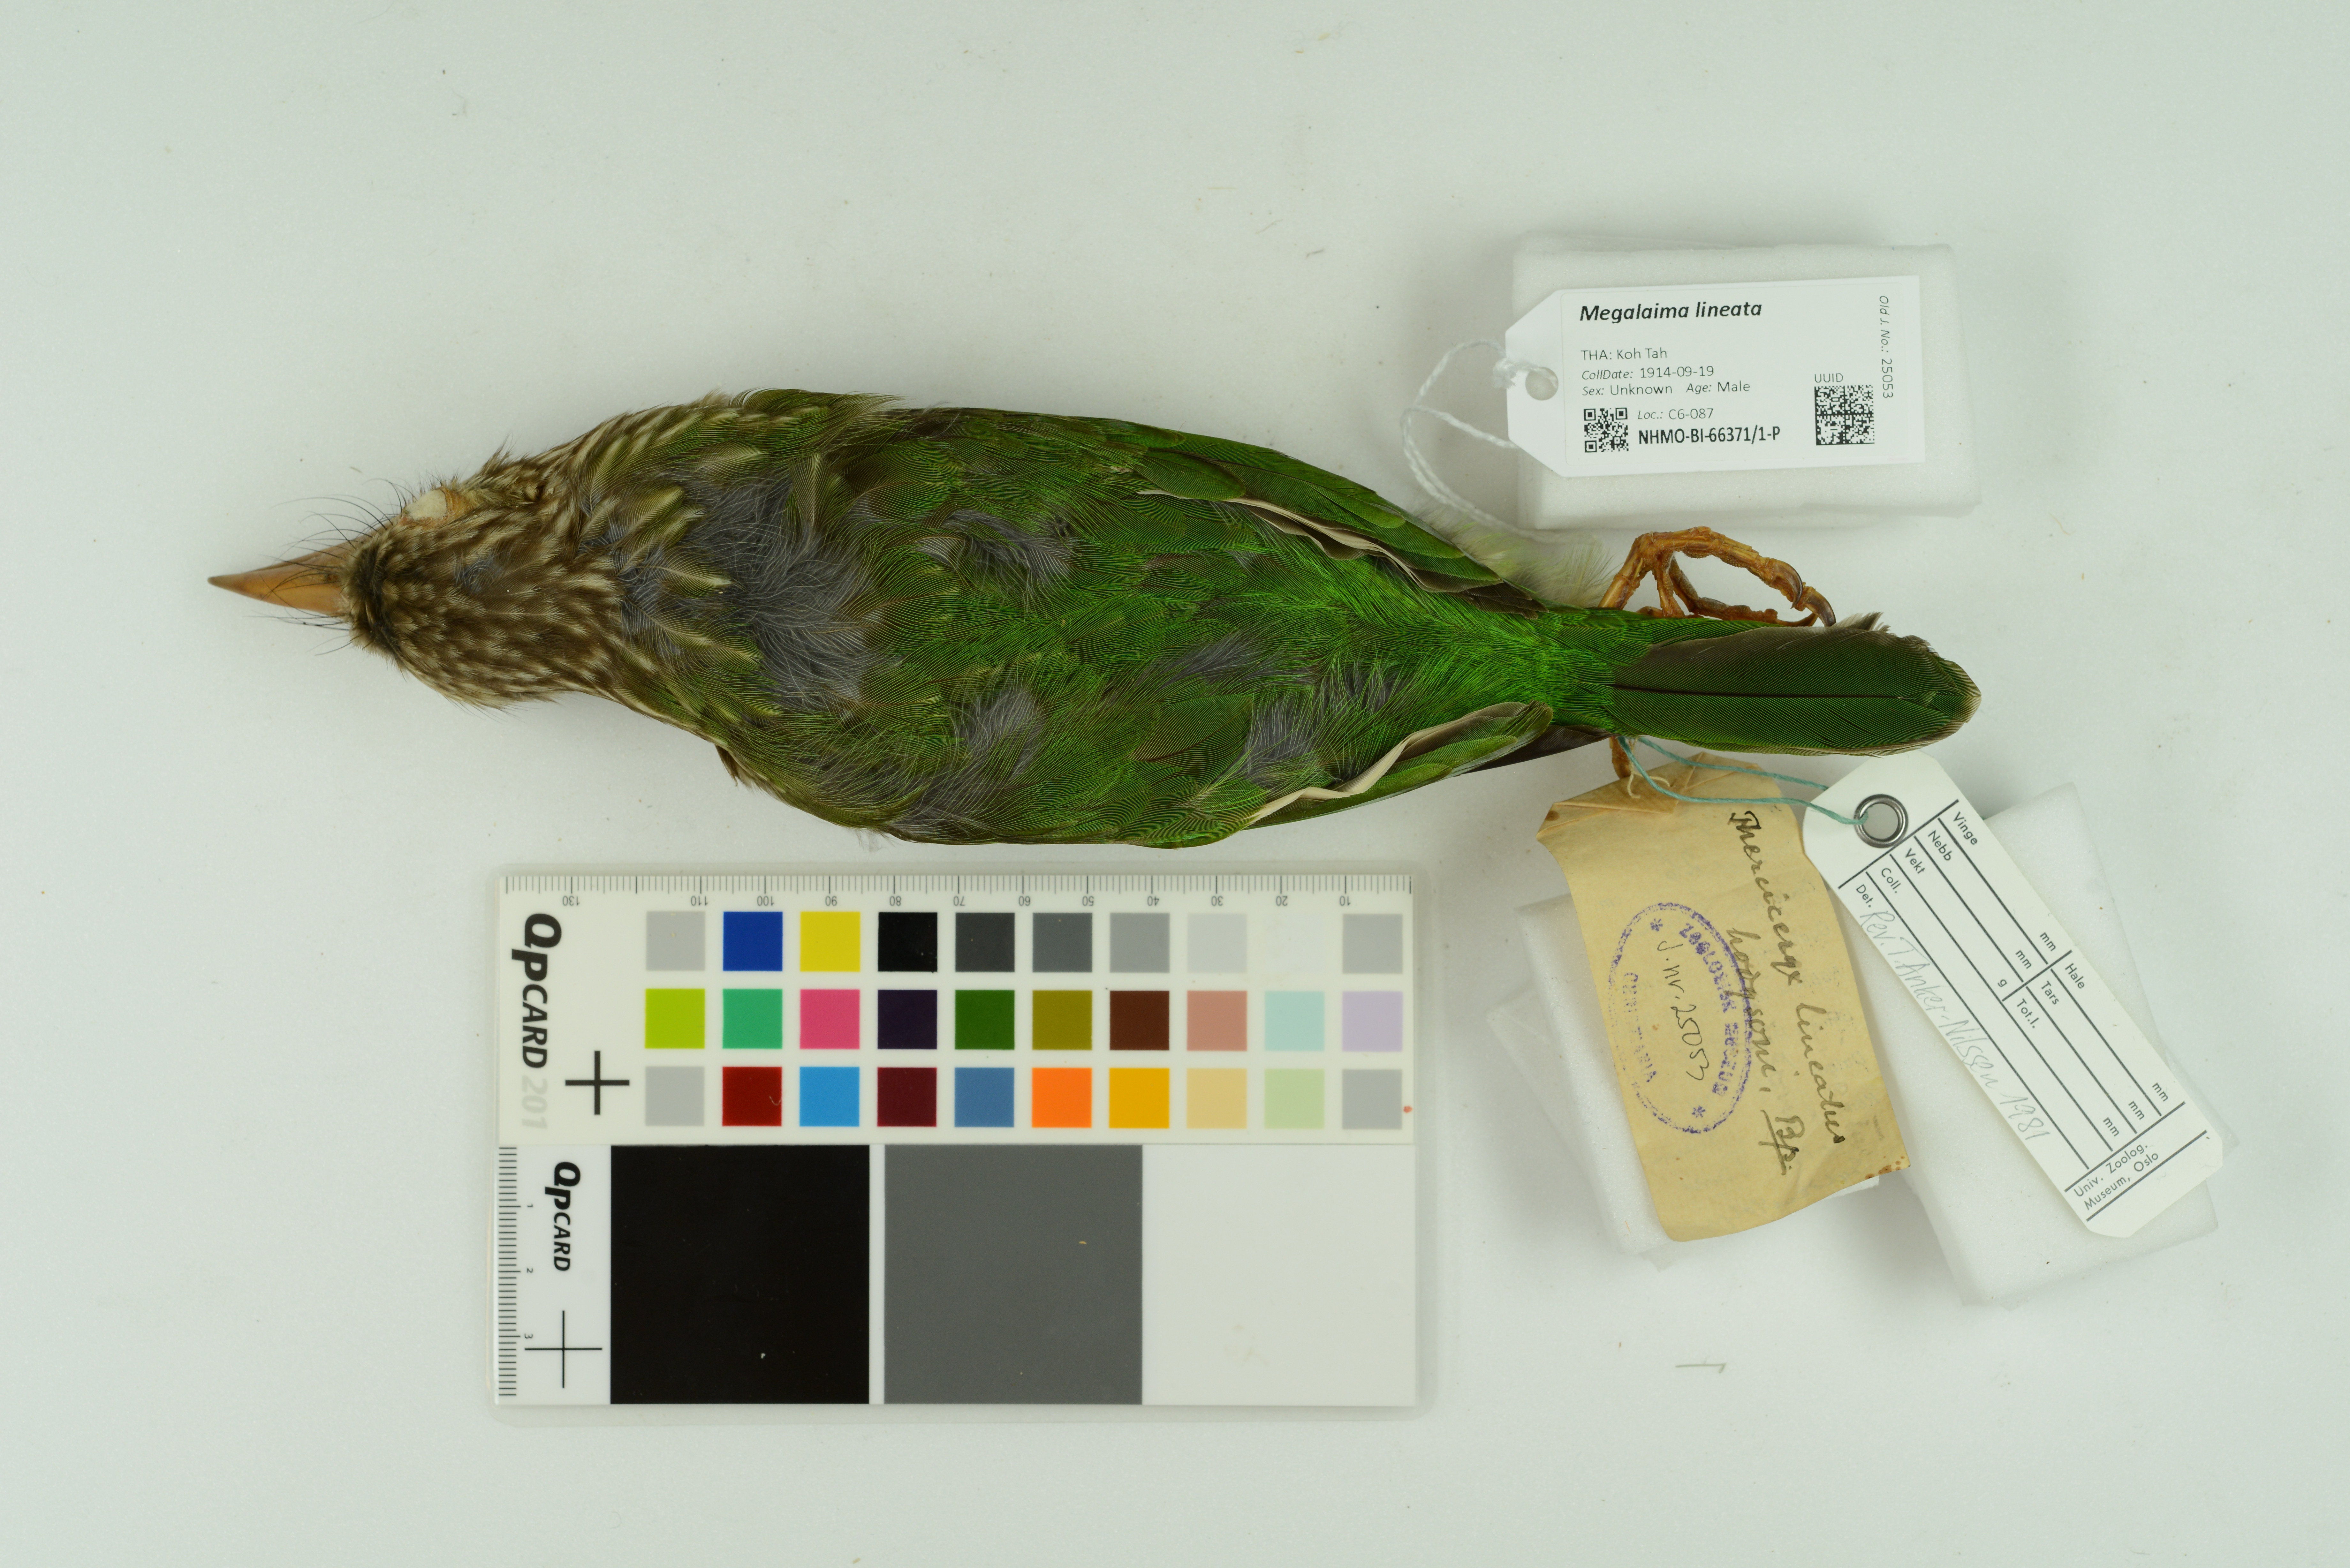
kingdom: Animalia
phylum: Chordata
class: Aves
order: Piciformes
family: Megalaimidae
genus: Psilopogon
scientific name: Psilopogon lineatus
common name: Lineated barbet
